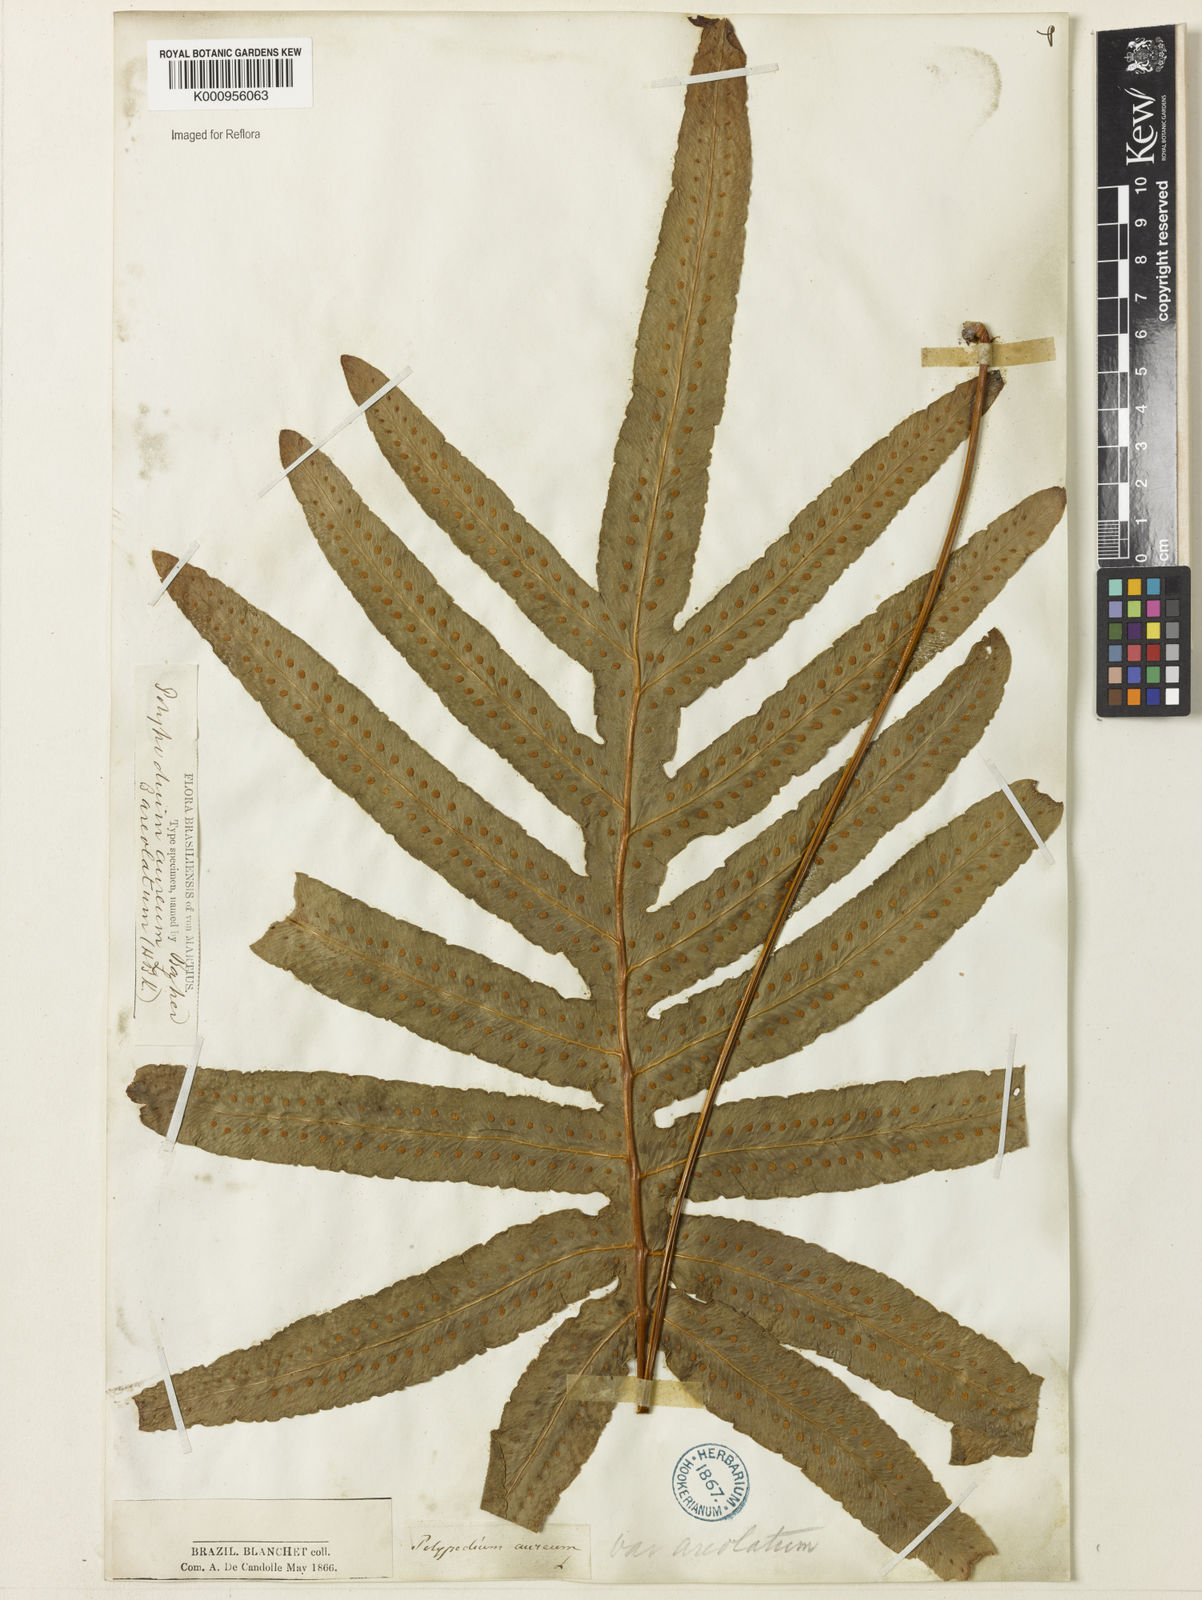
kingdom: Plantae
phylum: Tracheophyta
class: Polypodiopsida
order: Polypodiales
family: Polypodiaceae
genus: Phlebodium
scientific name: Phlebodium aureum
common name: Gold-foot fern
